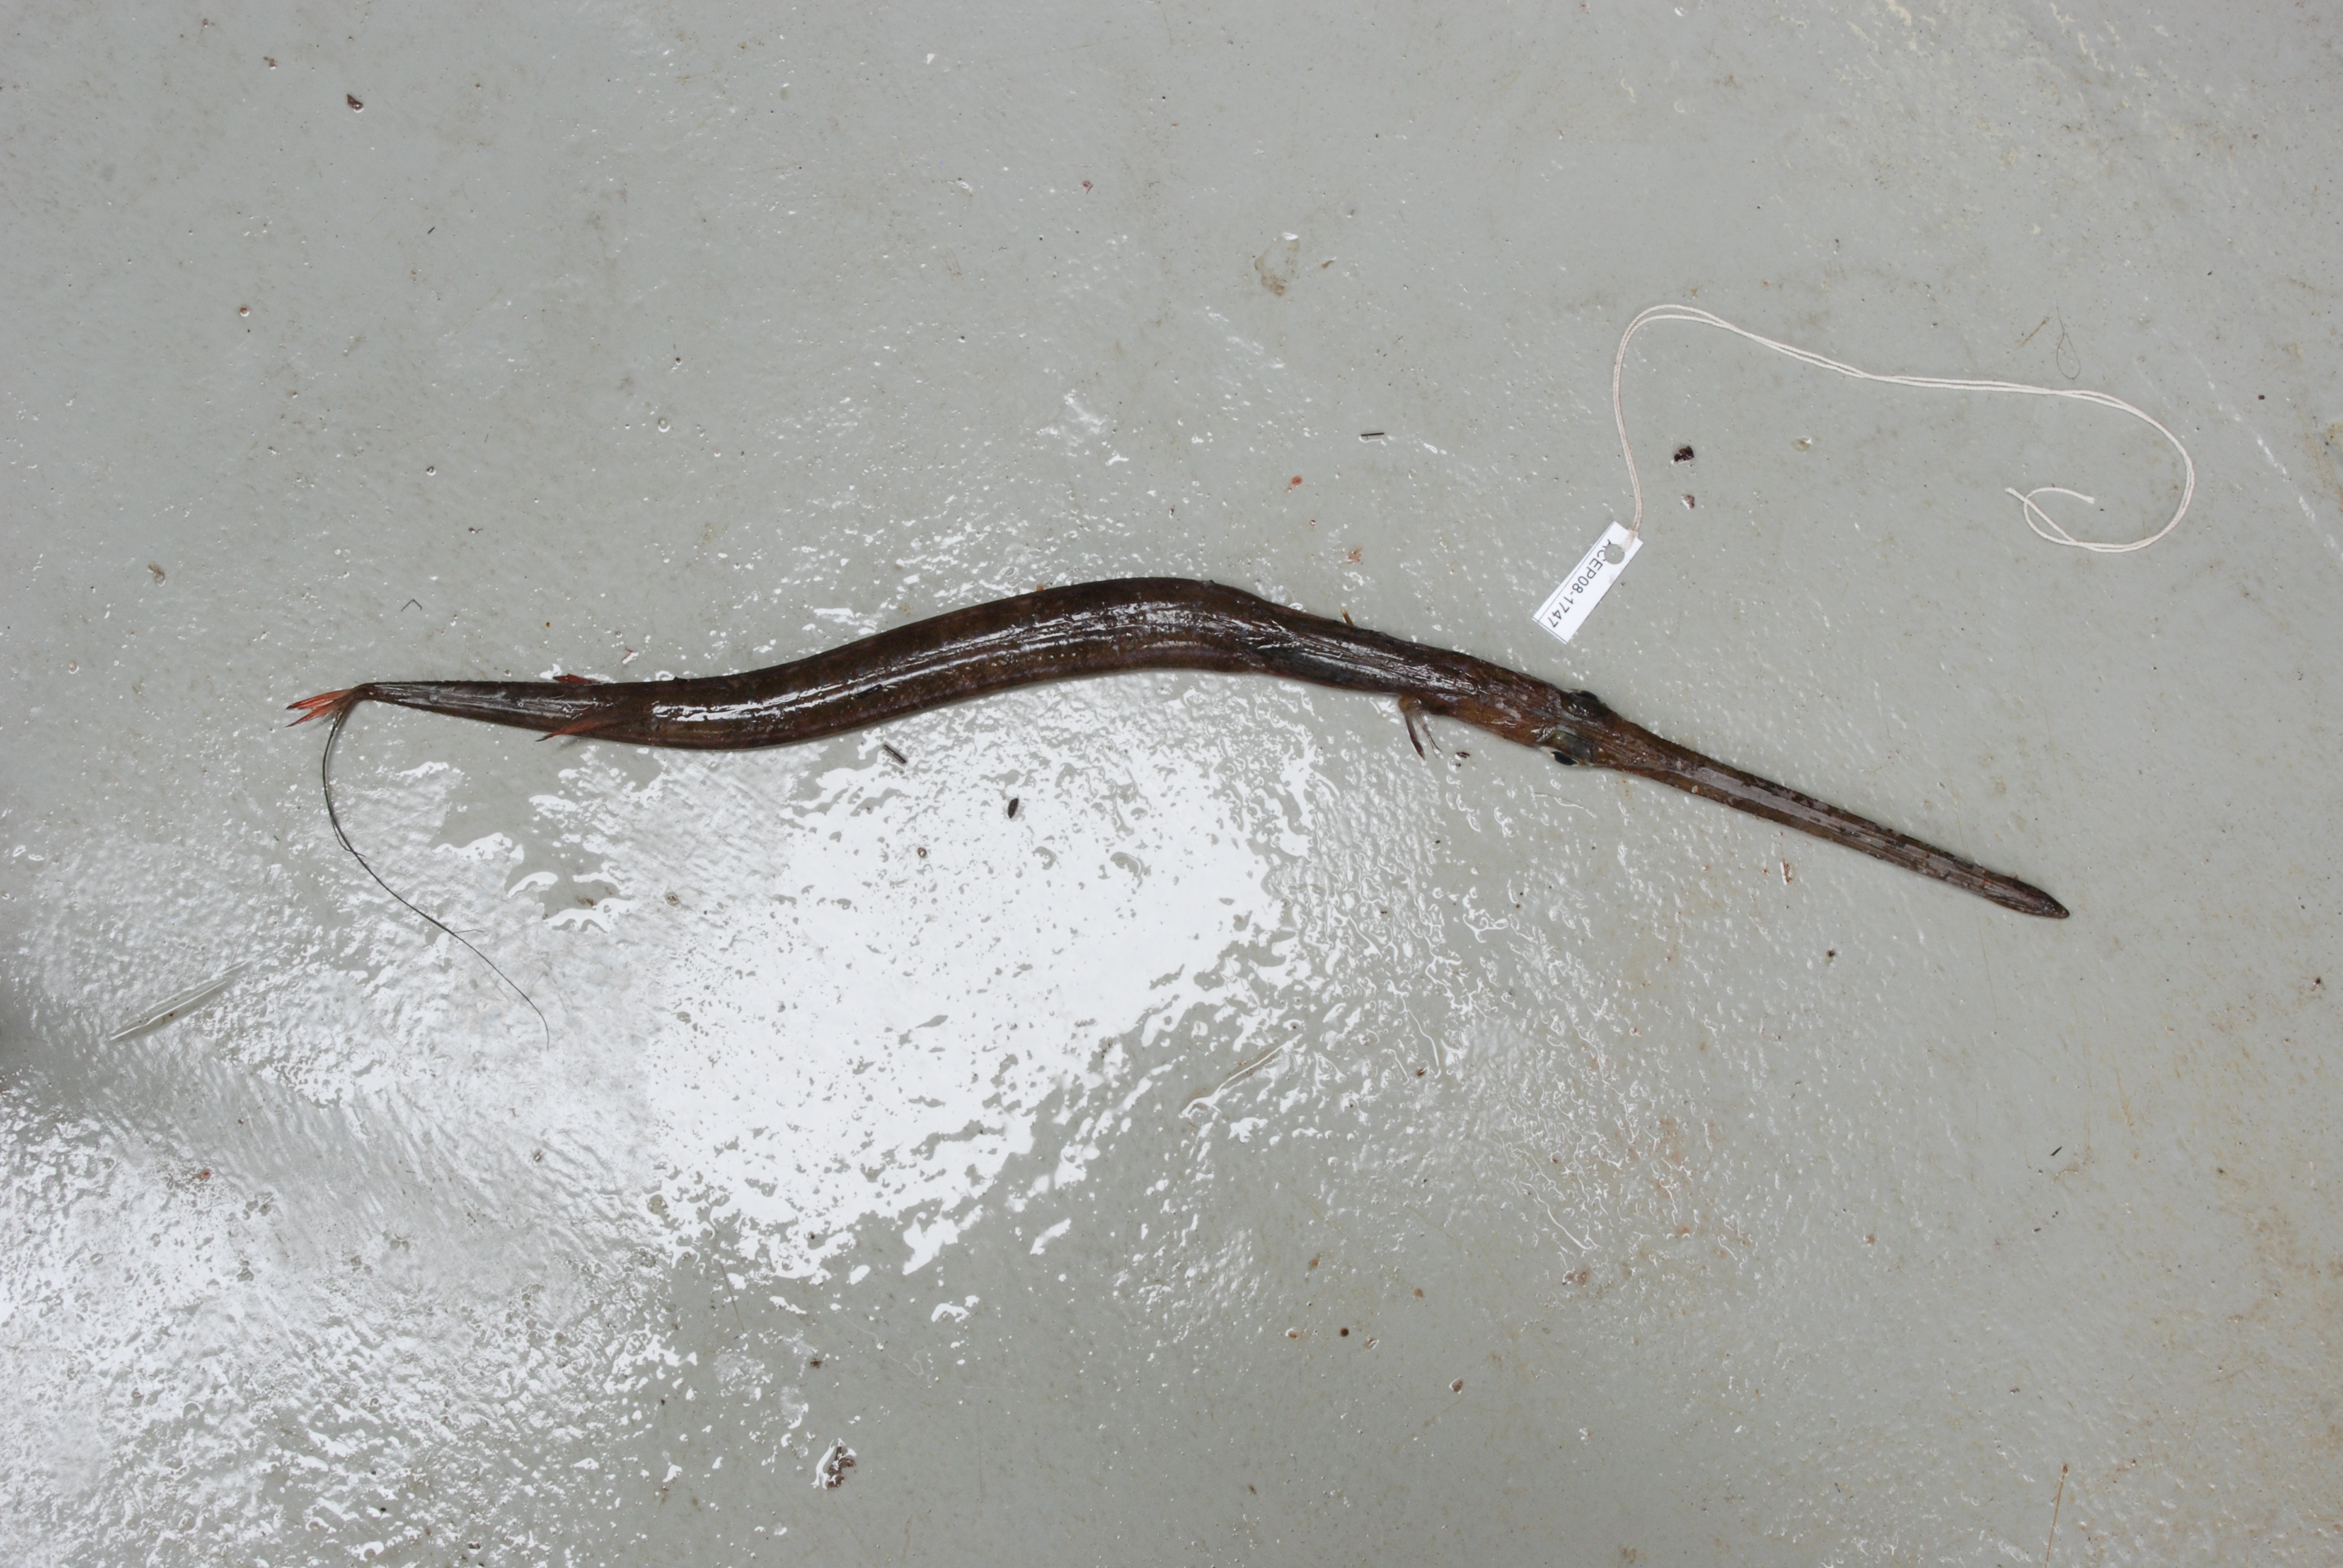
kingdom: Animalia
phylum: Chordata
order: Syngnathiformes
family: Fistulariidae
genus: Fistularia
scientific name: Fistularia commersonii
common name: Bluespotted cornetfish
